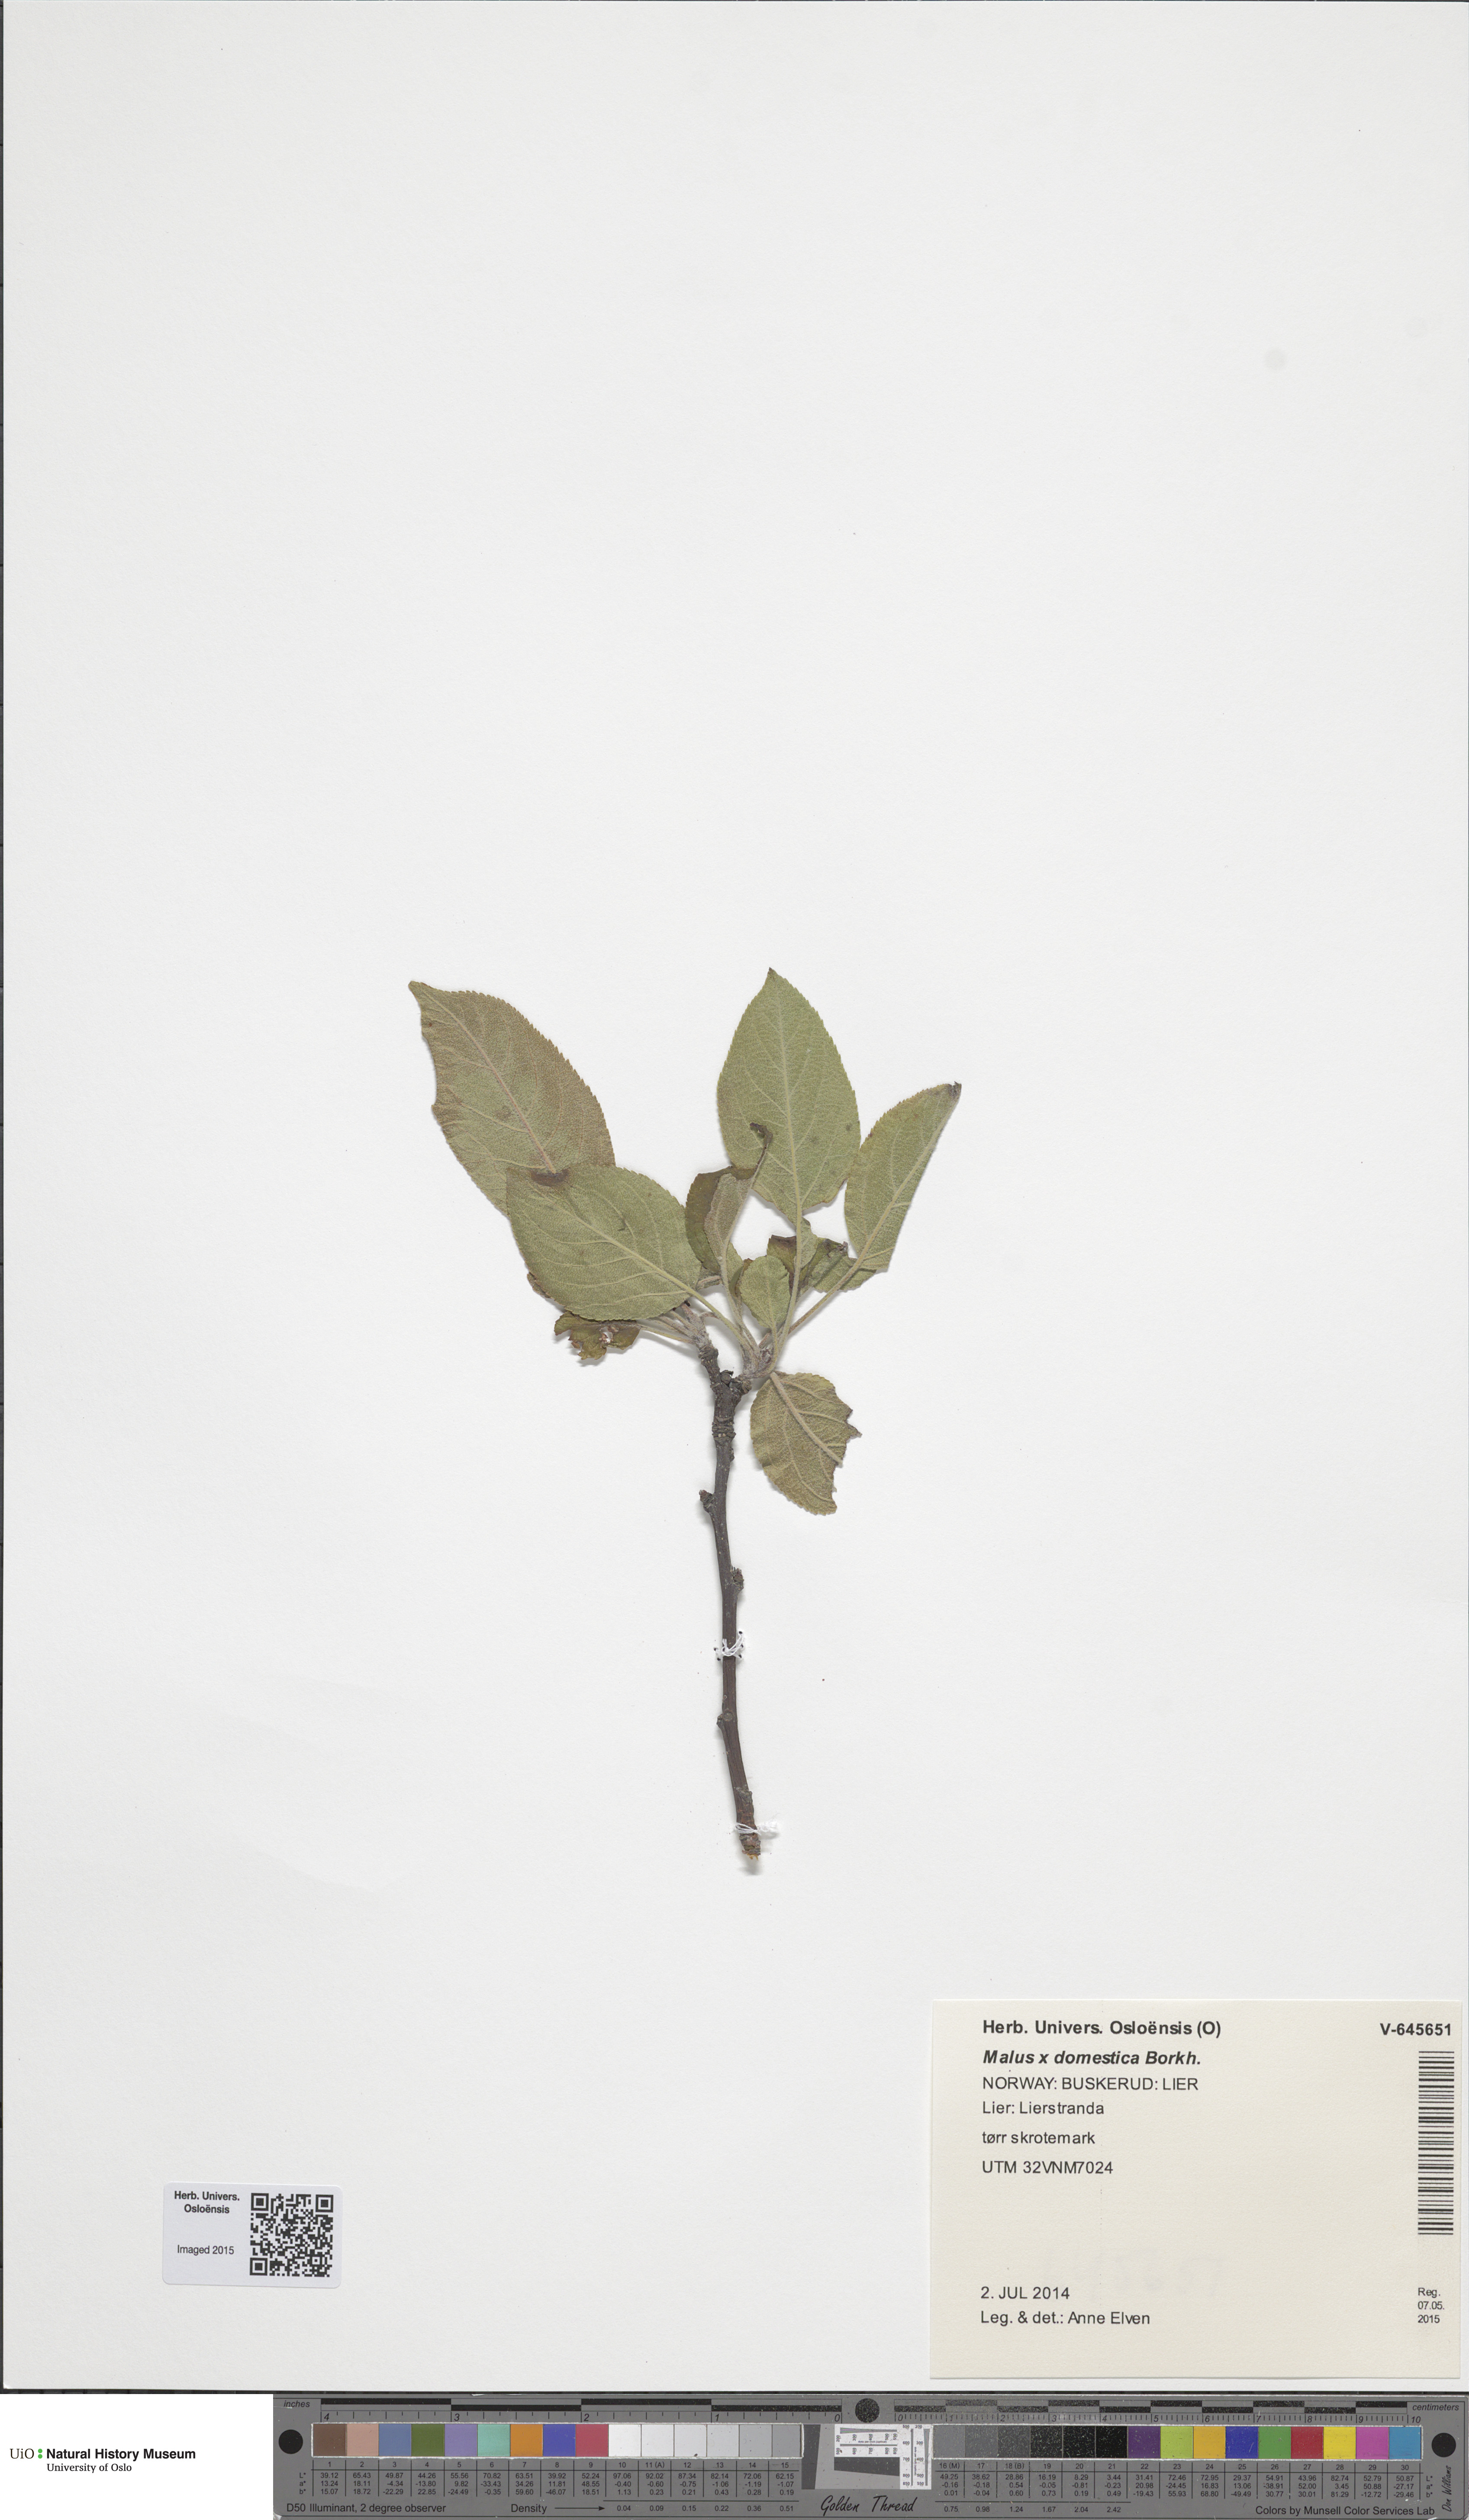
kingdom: Plantae
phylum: Tracheophyta
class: Magnoliopsida
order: Rosales
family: Rosaceae
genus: Malus
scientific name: Malus domestica
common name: Apple
